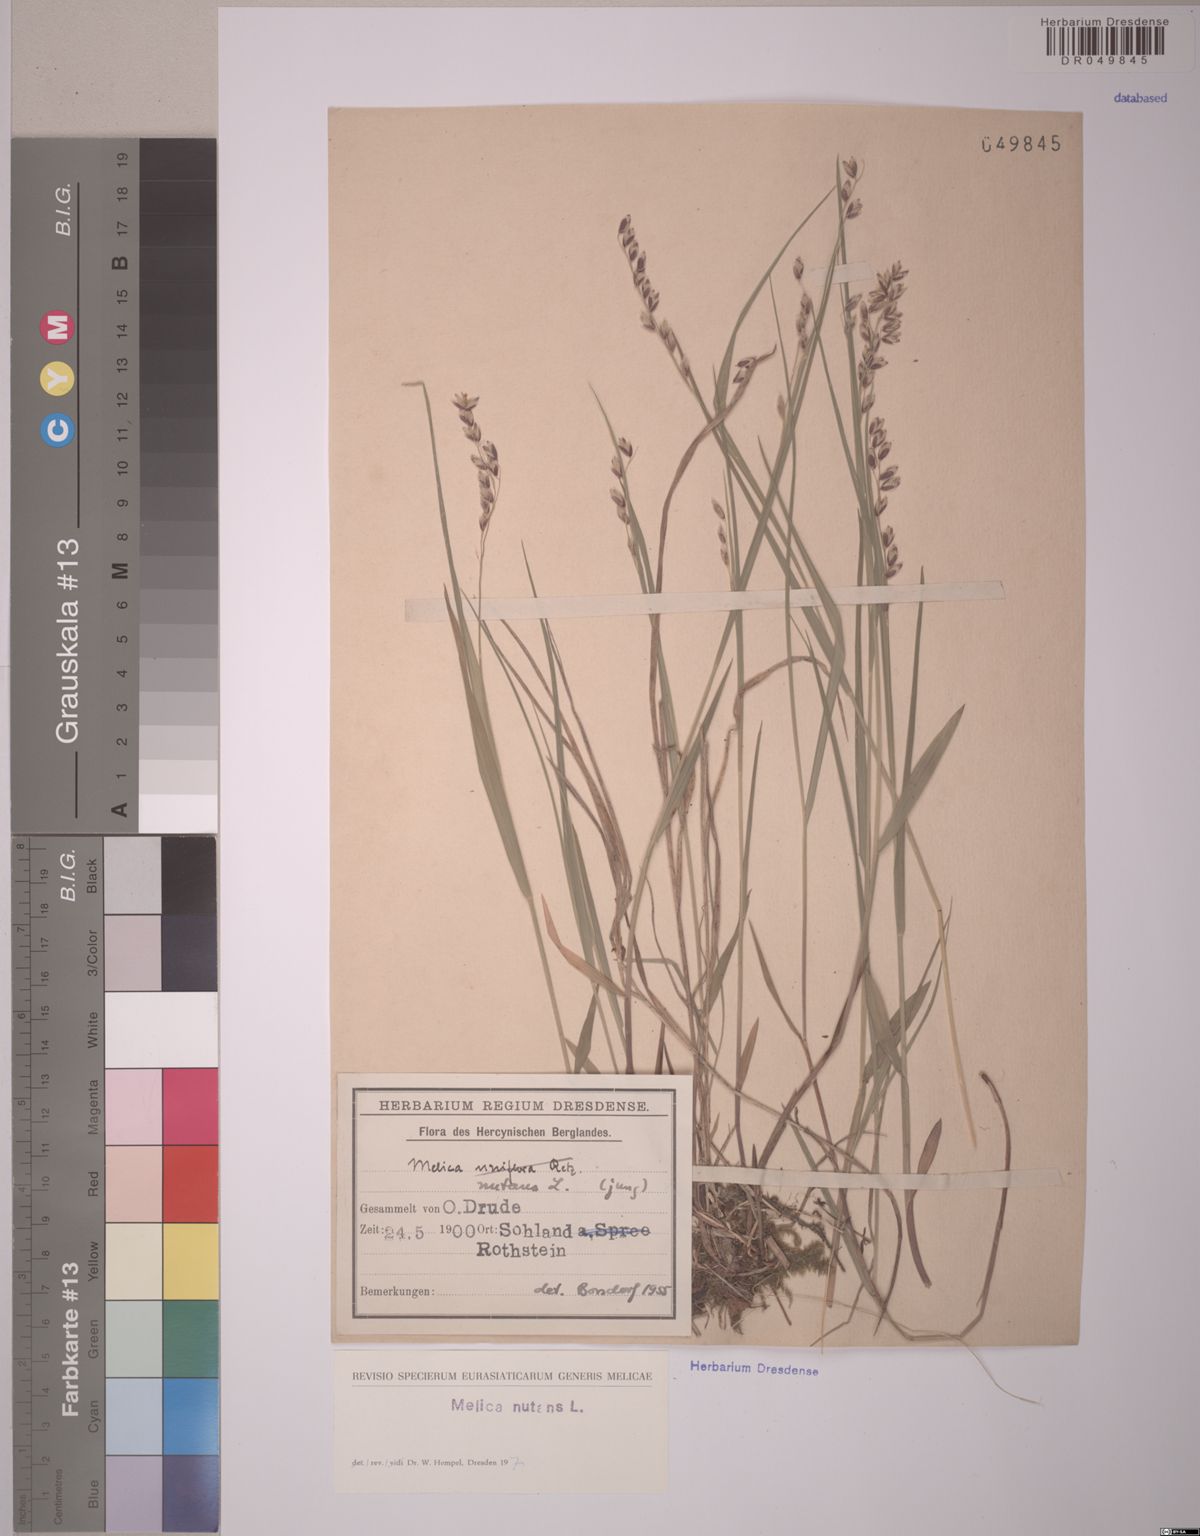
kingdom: Plantae
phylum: Tracheophyta
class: Liliopsida
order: Poales
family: Poaceae
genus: Melica
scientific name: Melica nutans
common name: Mountain melick
